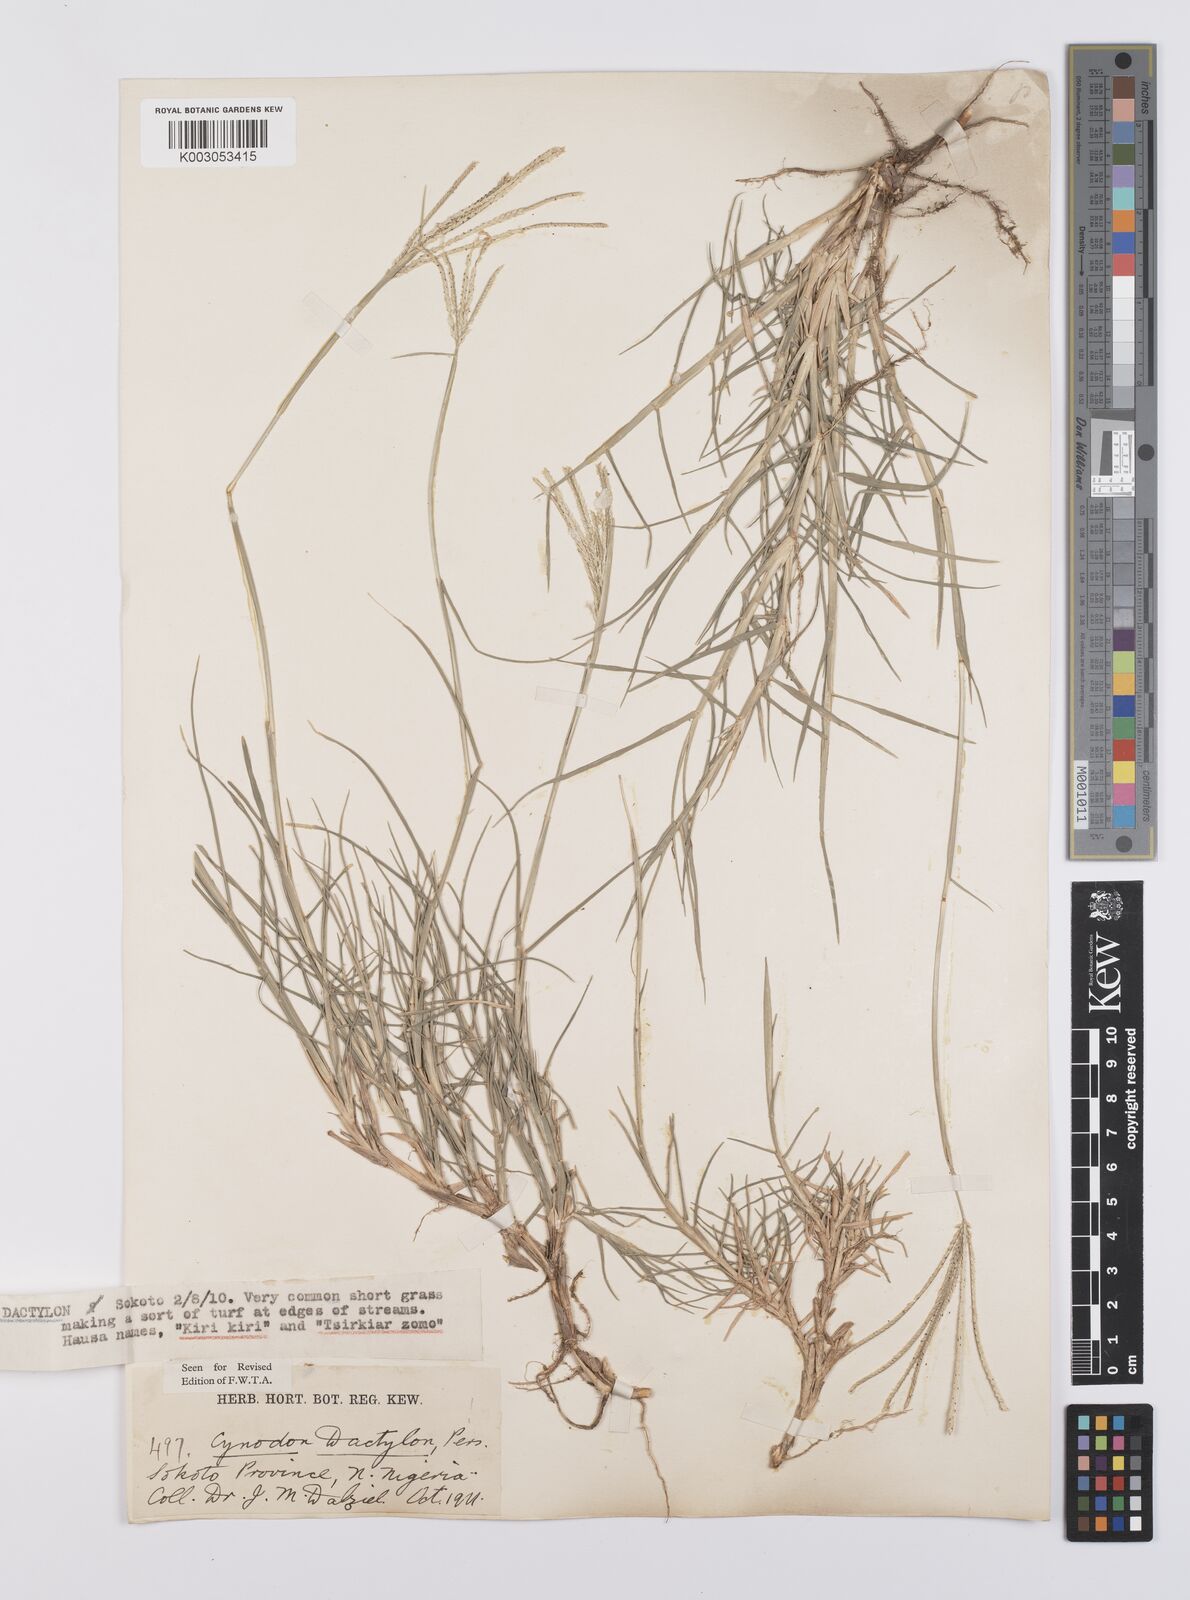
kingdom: Plantae
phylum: Tracheophyta
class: Liliopsida
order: Poales
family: Poaceae
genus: Cynodon
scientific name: Cynodon dactylon
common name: Bermuda grass
